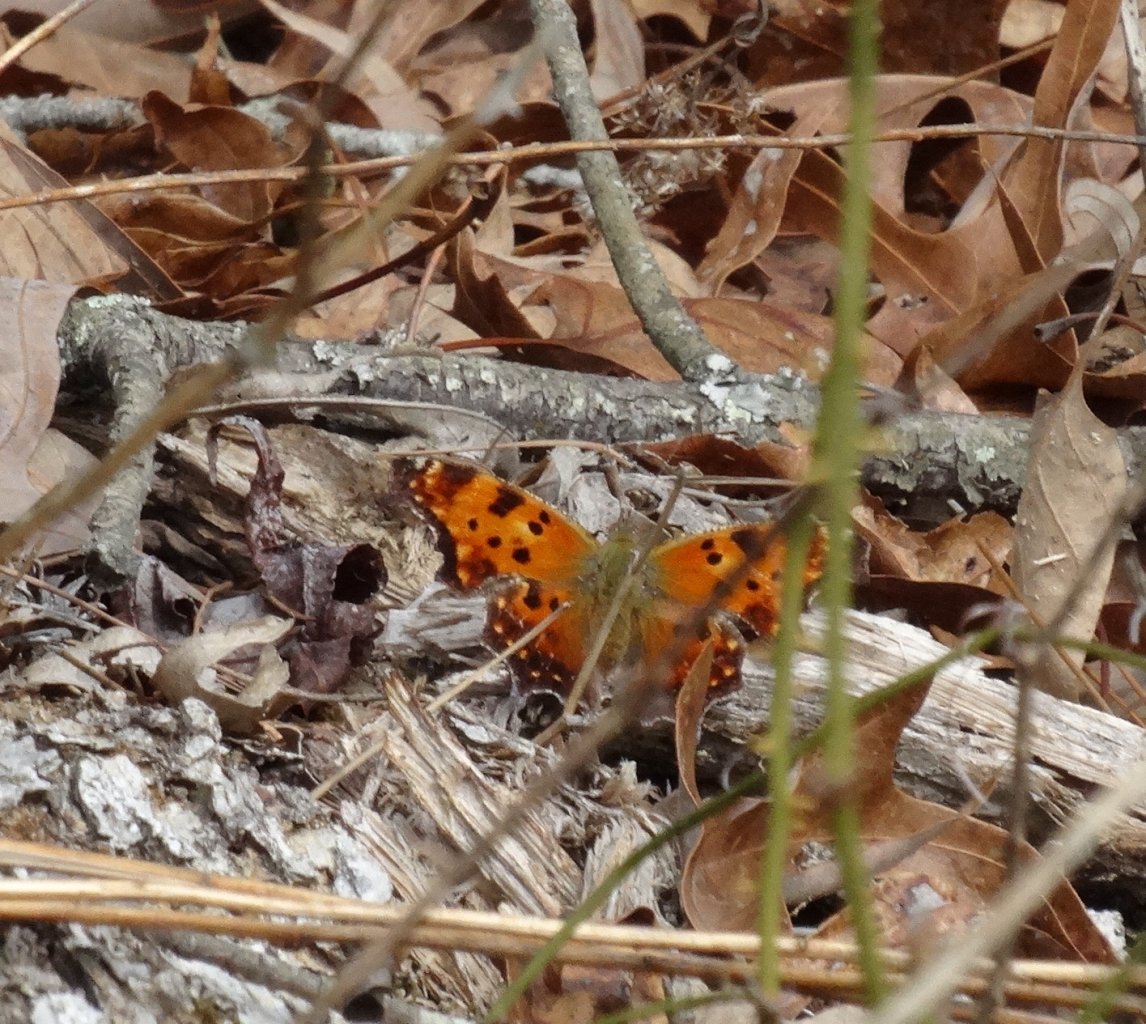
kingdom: Animalia
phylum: Arthropoda
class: Insecta
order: Lepidoptera
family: Nymphalidae
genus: Polygonia
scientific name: Polygonia comma
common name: Eastern Comma
